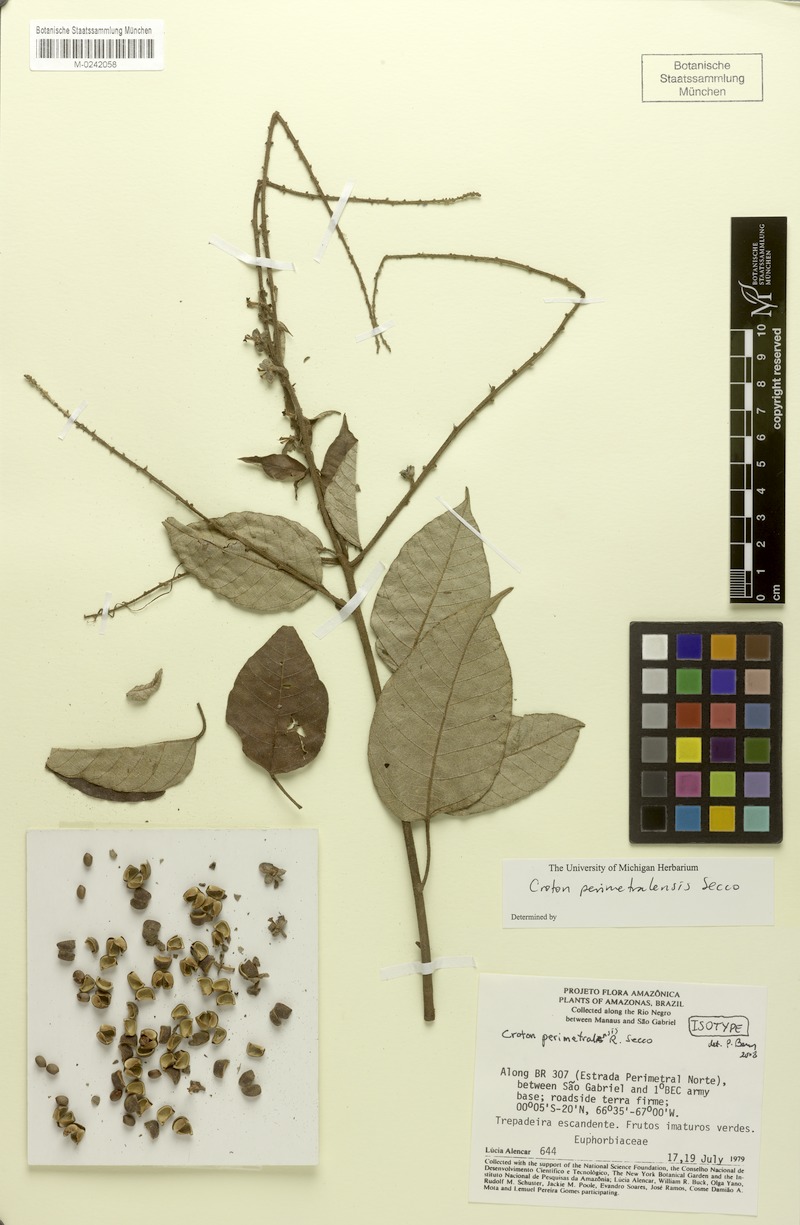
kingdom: Plantae
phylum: Tracheophyta
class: Magnoliopsida
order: Malpighiales
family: Euphorbiaceae
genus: Croton
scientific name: Croton perimetralensis
